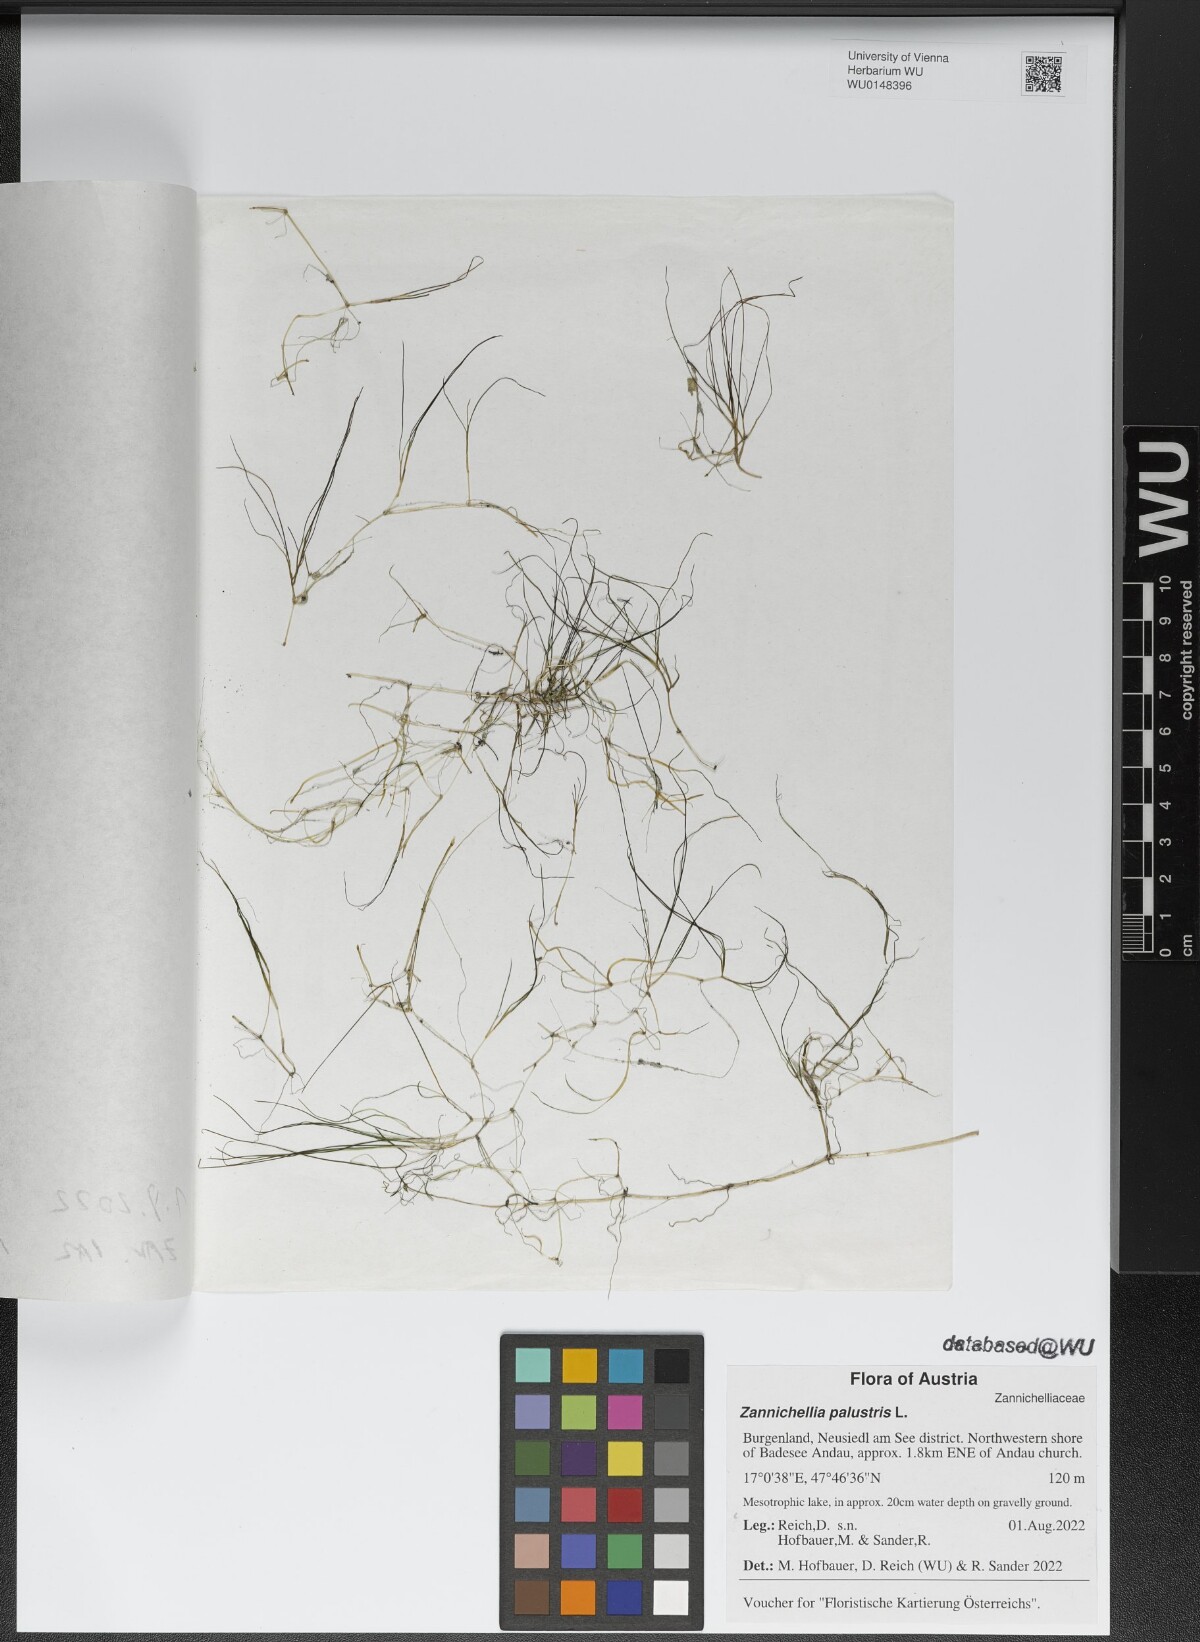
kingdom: Plantae
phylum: Tracheophyta
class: Liliopsida
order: Alismatales
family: Potamogetonaceae
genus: Zannichellia
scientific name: Zannichellia palustris
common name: Horned pondweed
